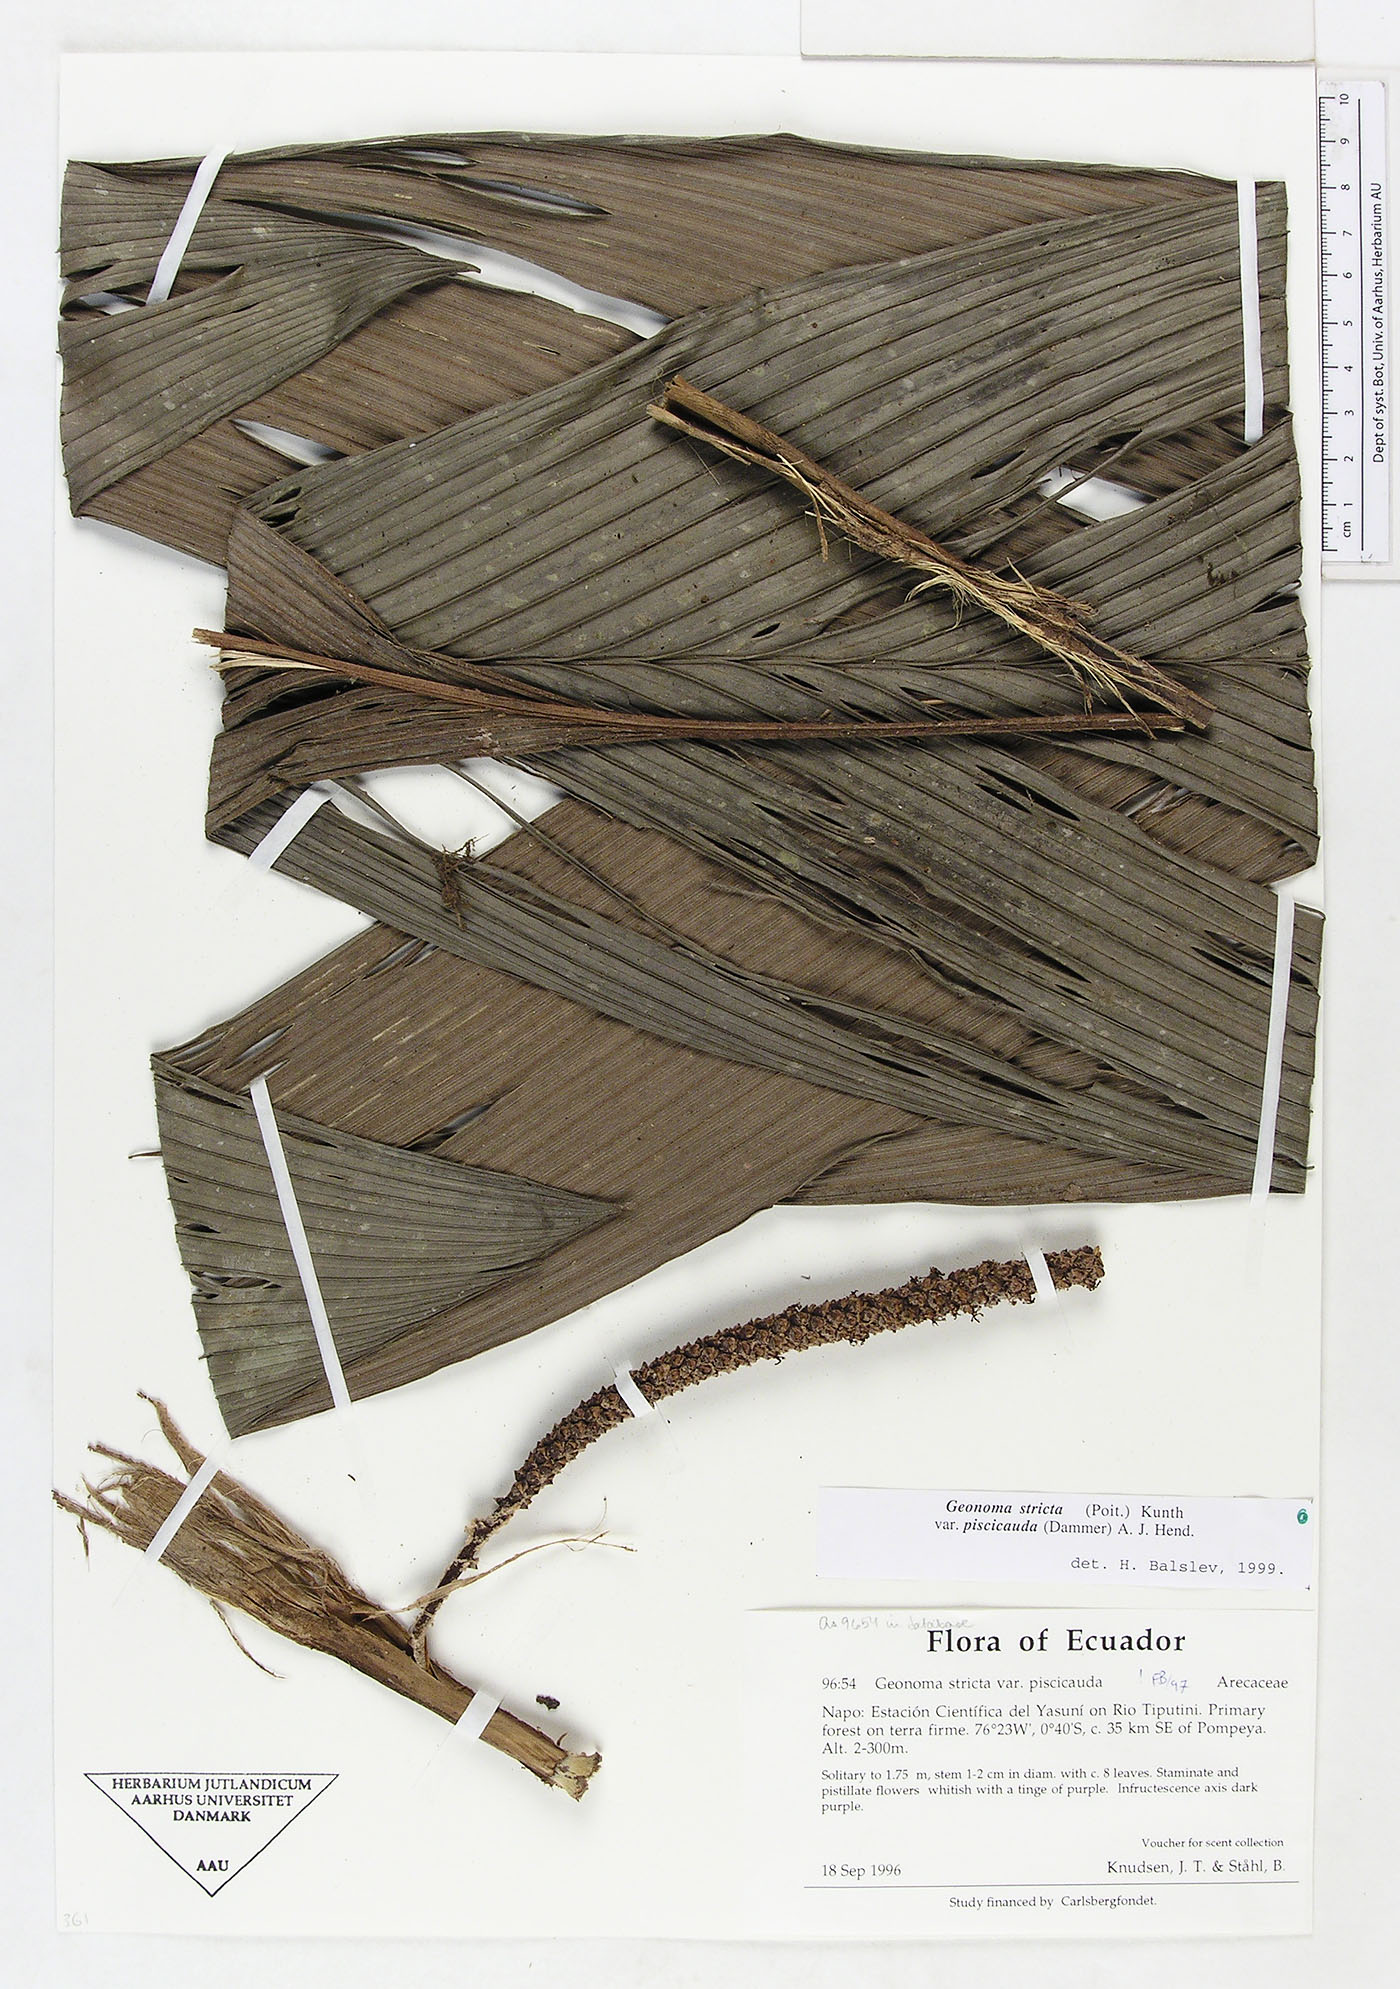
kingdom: Plantae
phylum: Tracheophyta
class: Liliopsida
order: Arecales
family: Arecaceae
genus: Geonoma
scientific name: Geonoma stricta
